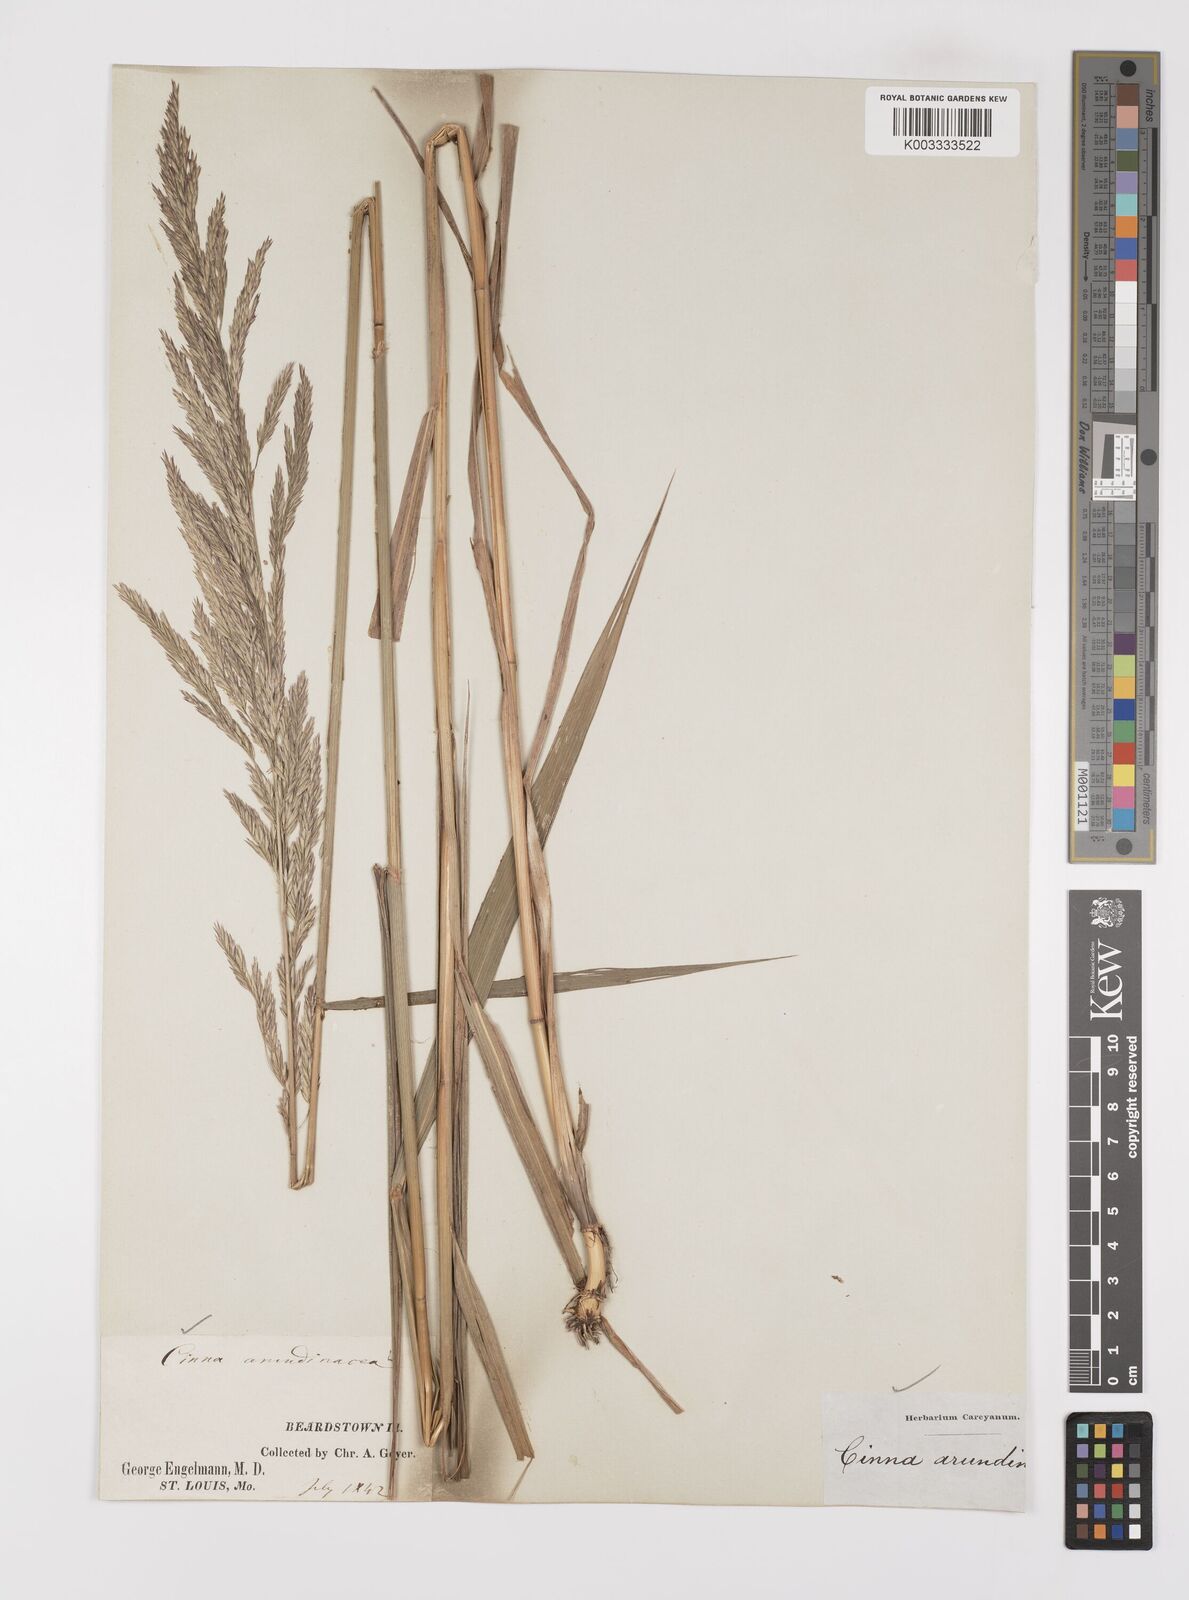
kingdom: Plantae
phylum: Tracheophyta
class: Liliopsida
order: Poales
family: Poaceae
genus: Cinna
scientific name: Cinna
